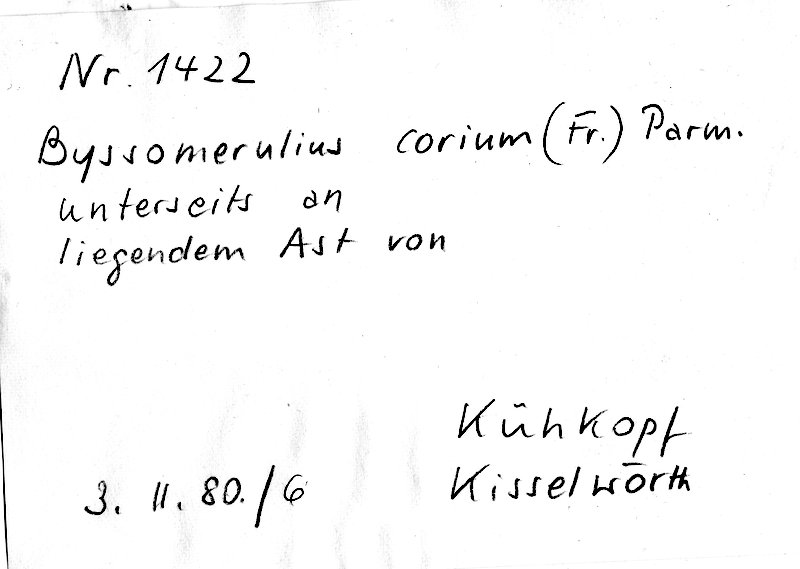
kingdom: Fungi
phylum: Basidiomycota
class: Agaricomycetes
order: Polyporales
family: Irpicaceae
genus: Byssomerulius
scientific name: Byssomerulius corium
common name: Netted crust
